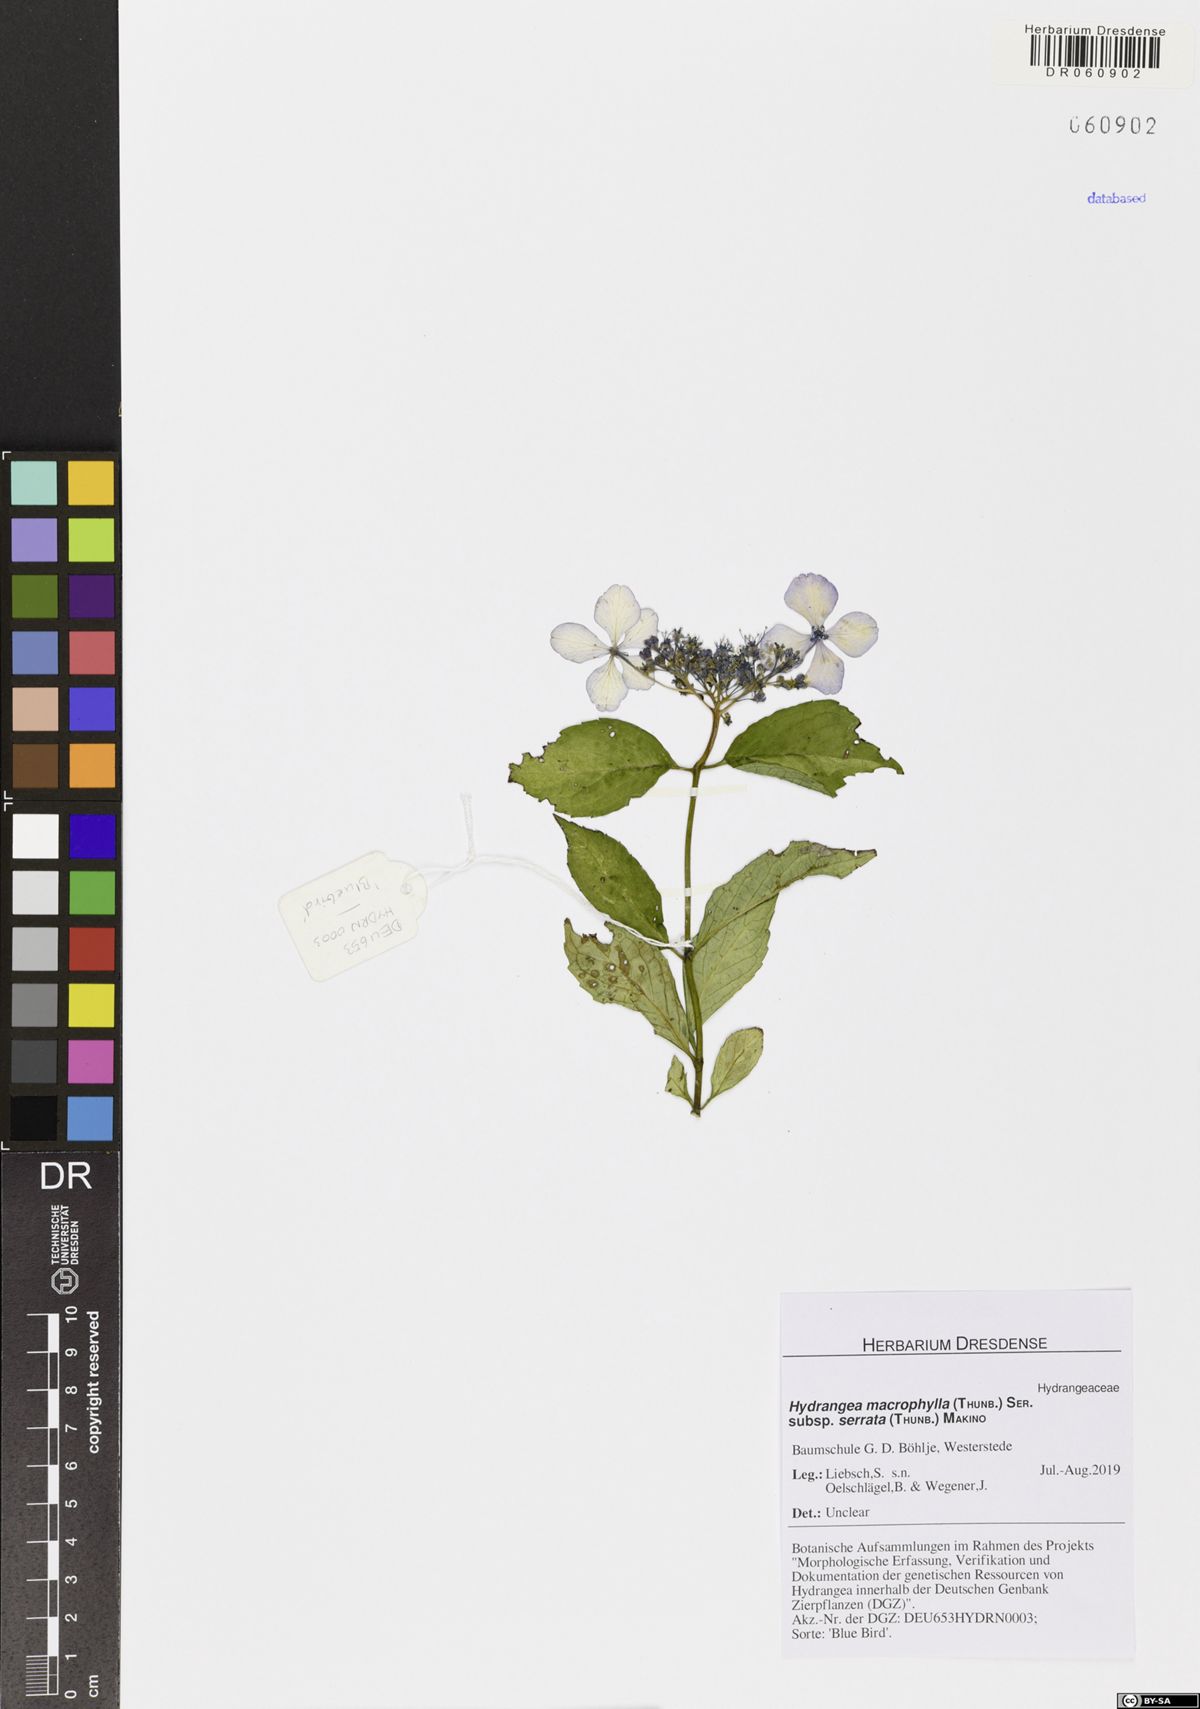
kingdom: Plantae
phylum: Tracheophyta
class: Magnoliopsida
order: Cornales
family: Hydrangeaceae
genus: Hydrangea
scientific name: Hydrangea serrata
